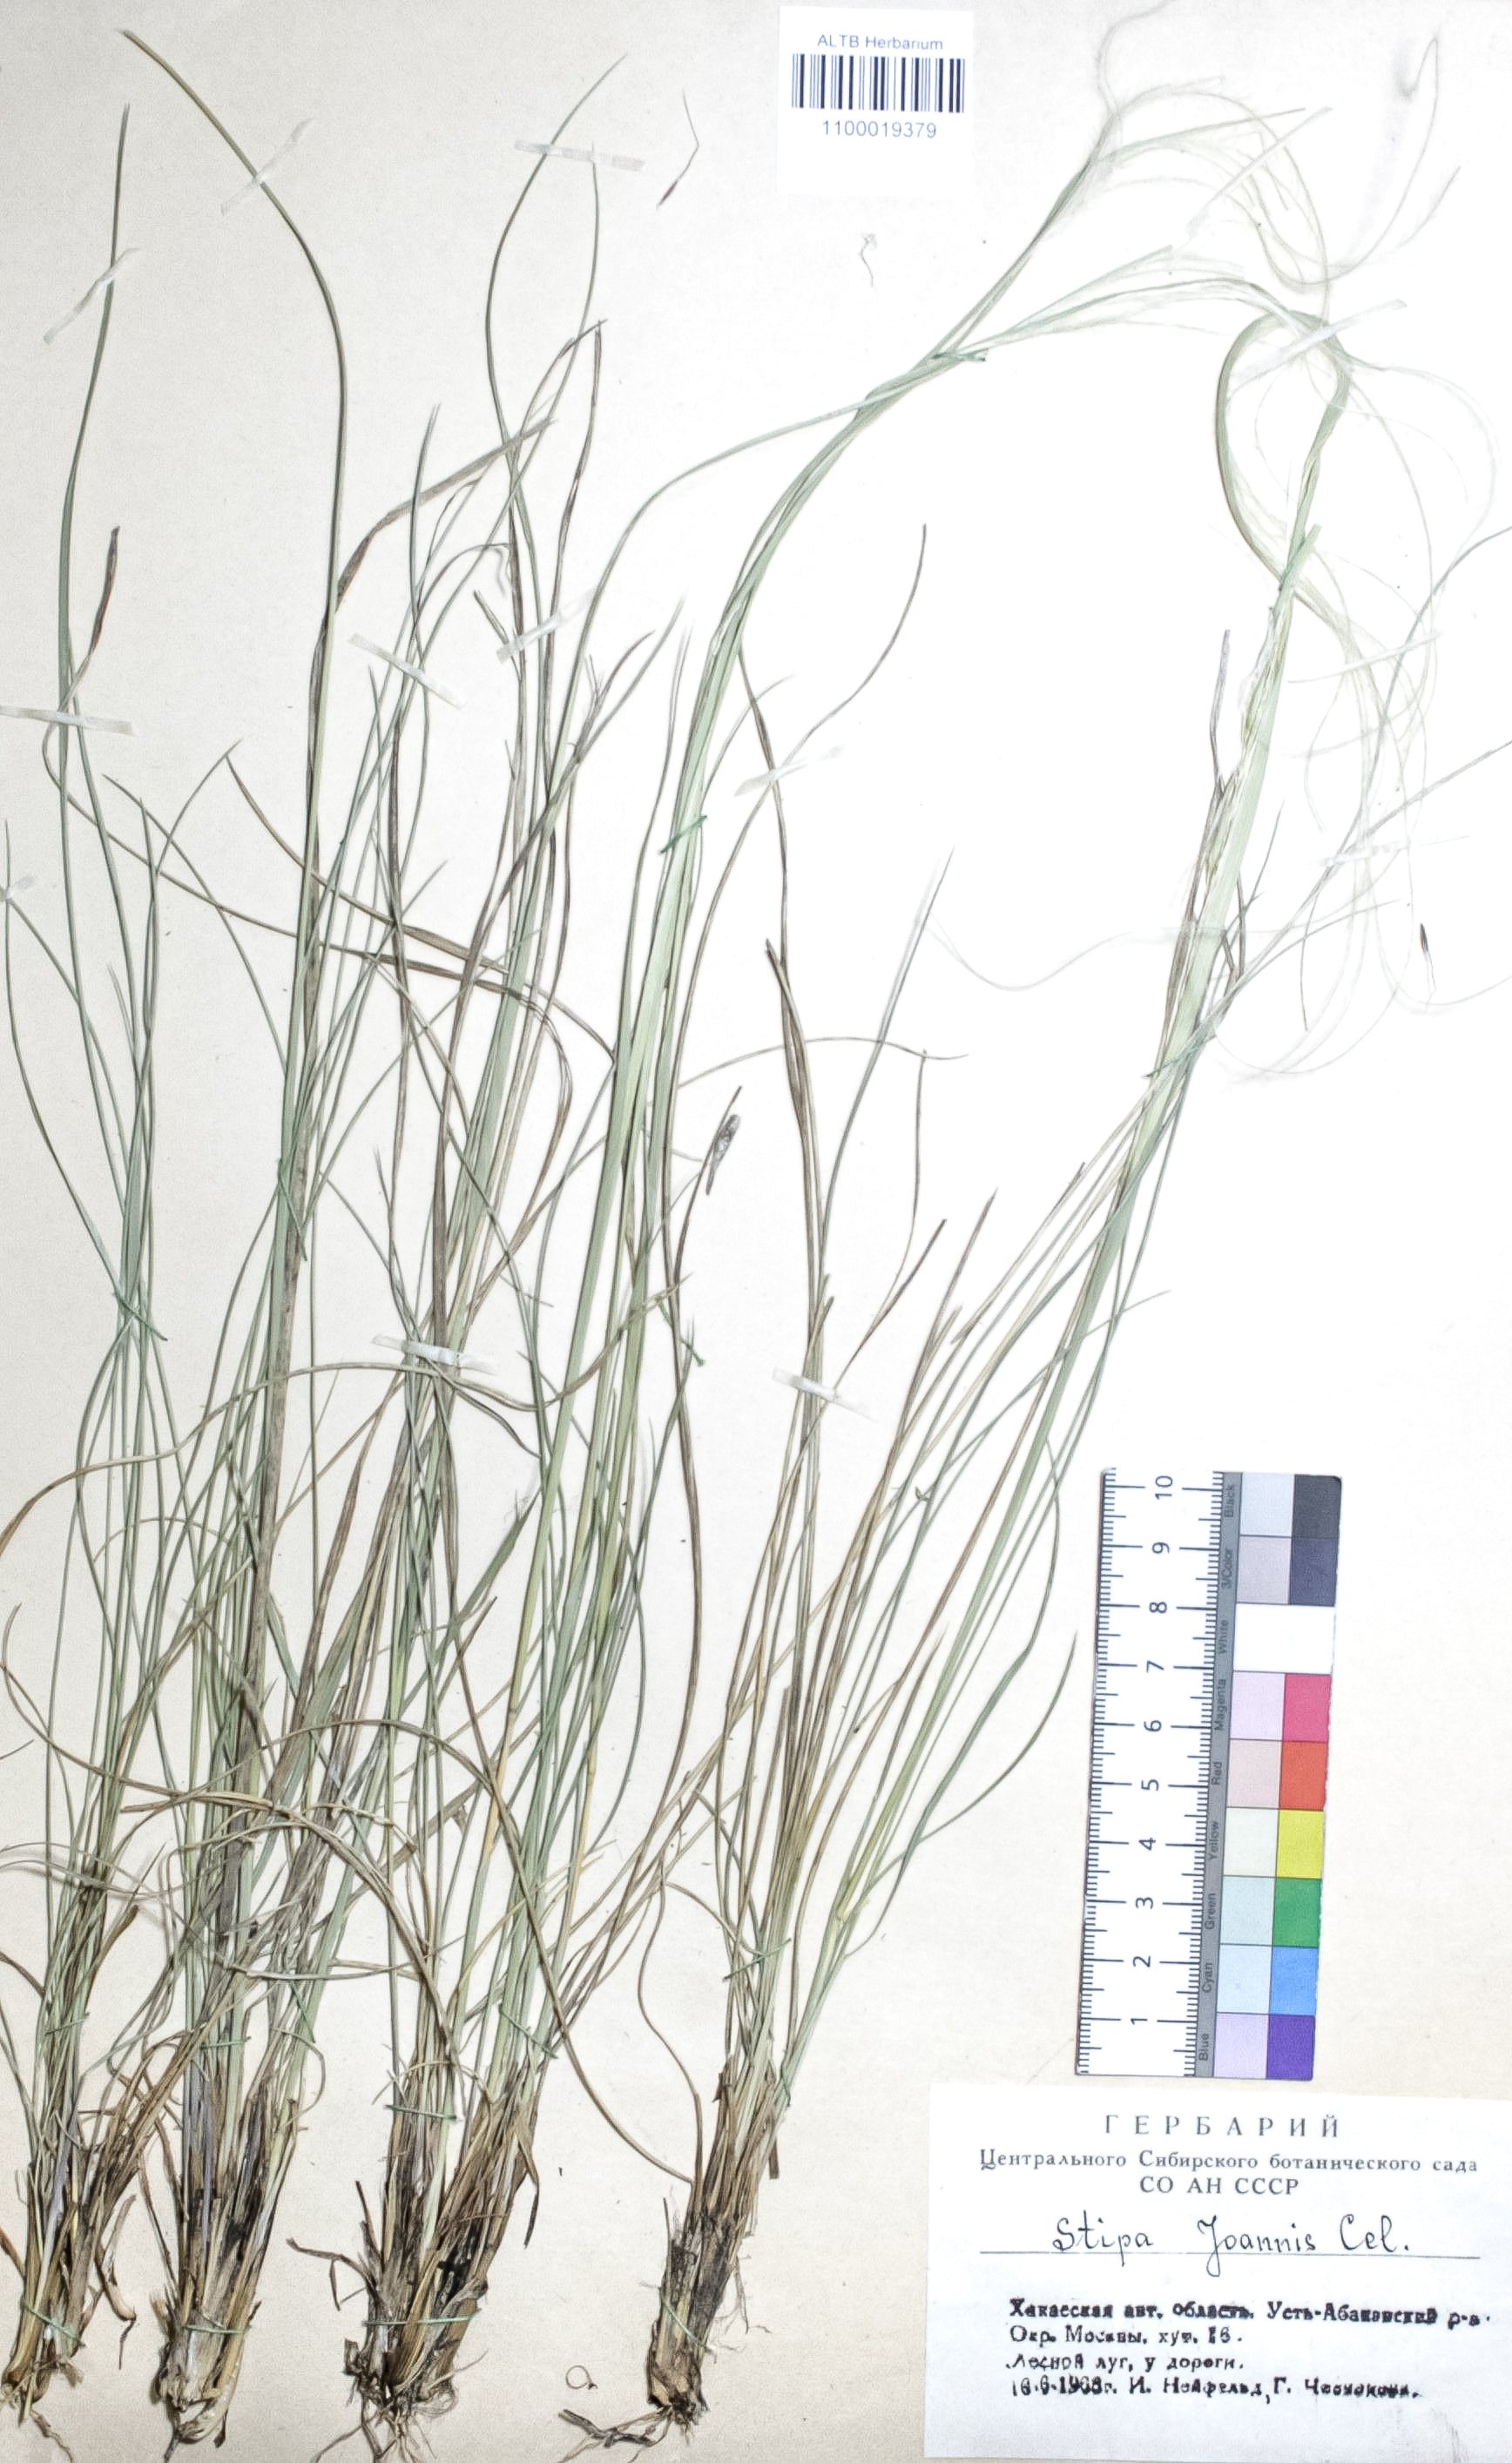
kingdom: Plantae
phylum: Tracheophyta
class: Liliopsida
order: Poales
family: Poaceae
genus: Stipa
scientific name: Stipa pennata
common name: European feather grass
